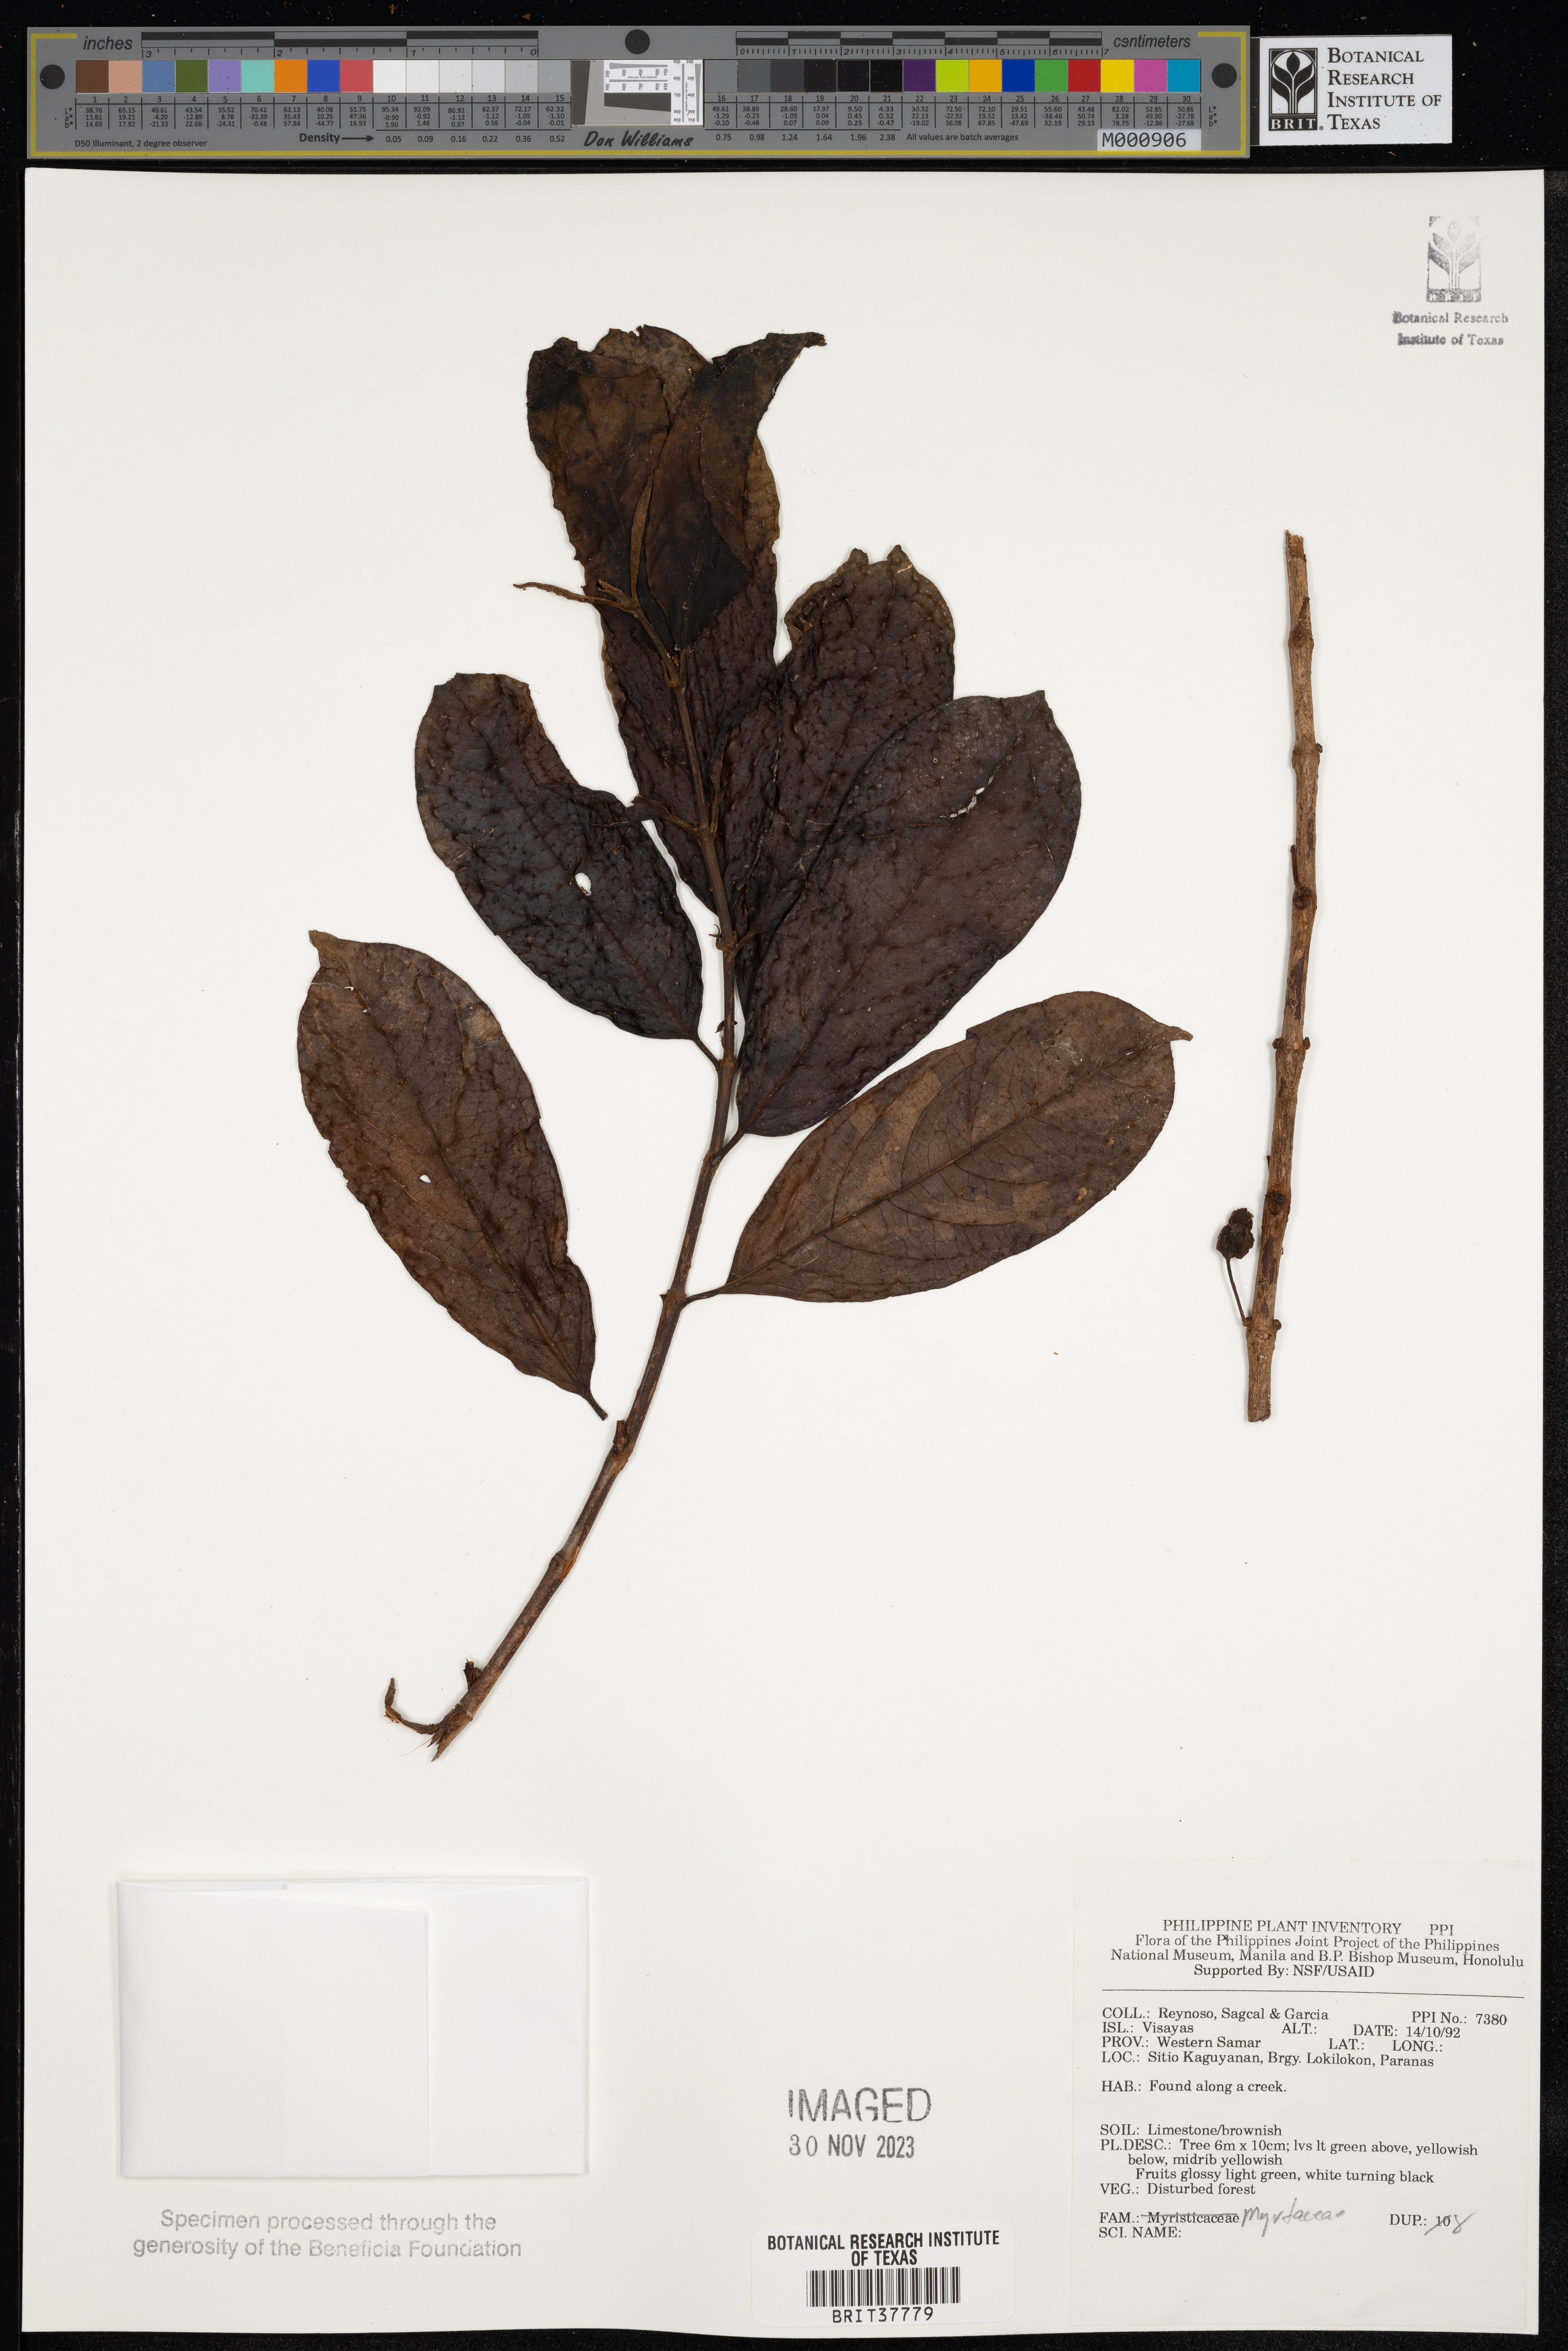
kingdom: Plantae
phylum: Tracheophyta
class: Magnoliopsida
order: Myrtales
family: Myrtaceae
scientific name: Myrtaceae
